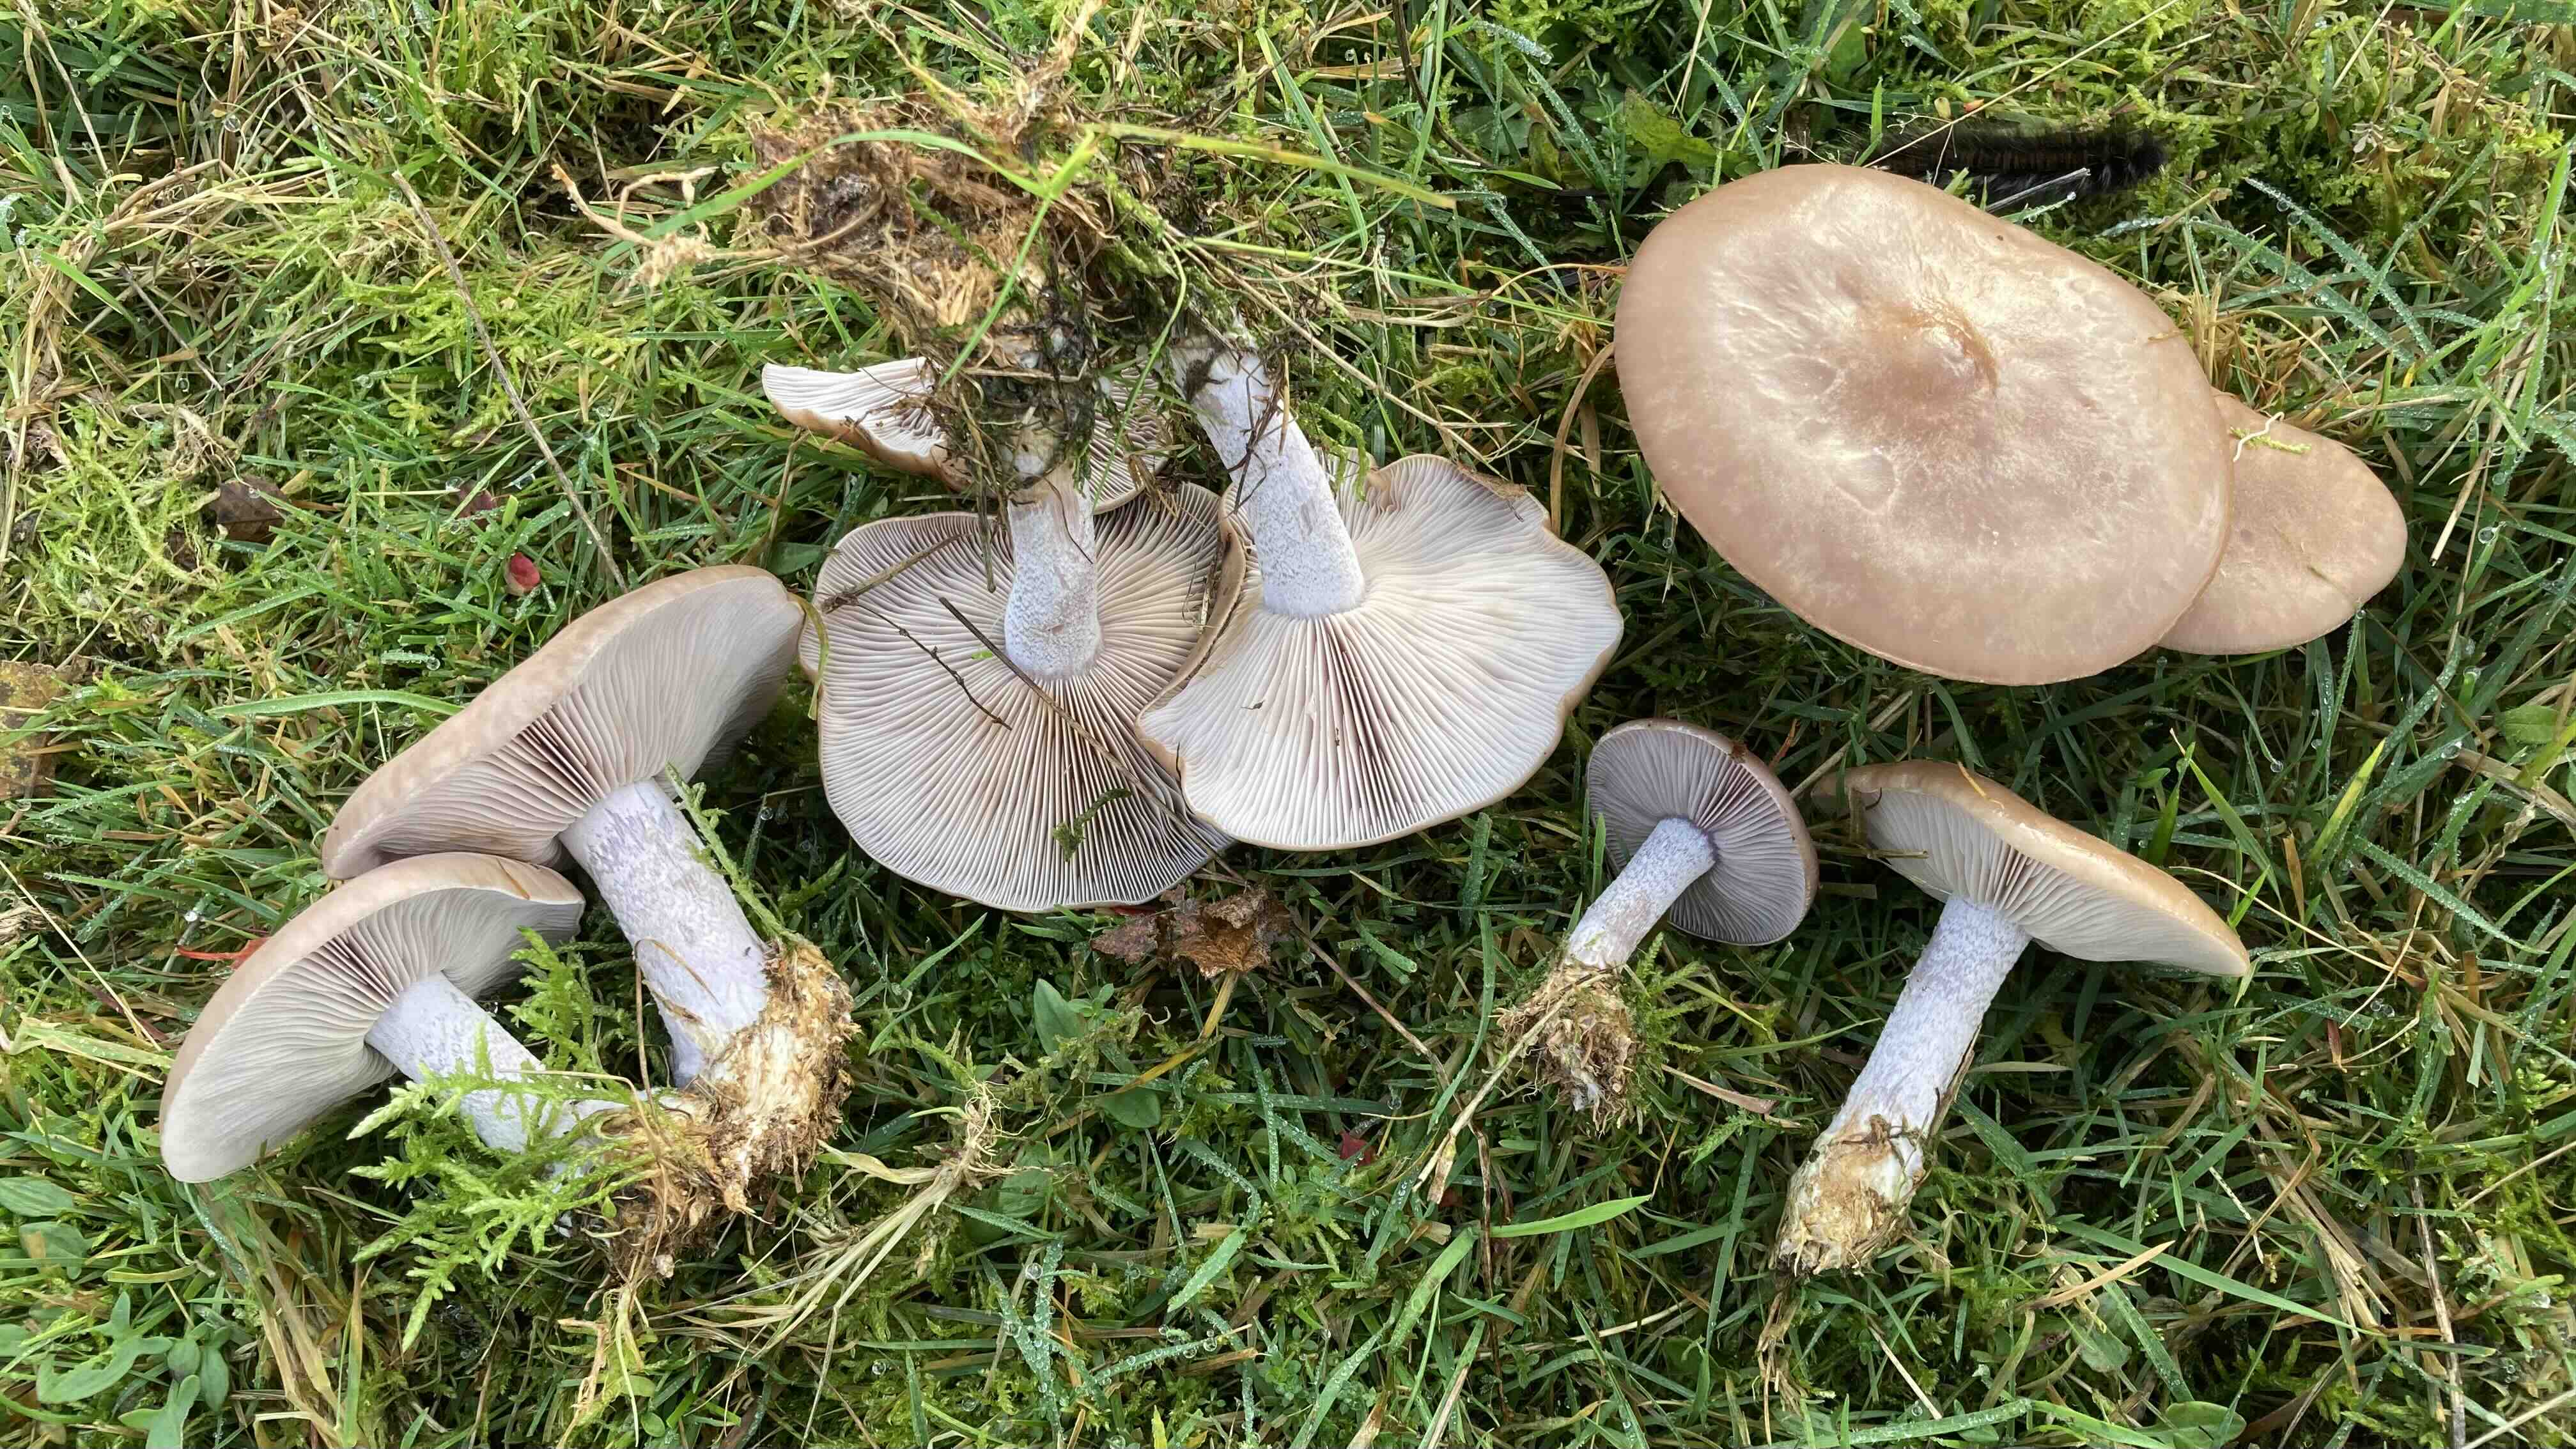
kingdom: Fungi
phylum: Basidiomycota
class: Agaricomycetes
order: Agaricales
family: Tricholomataceae
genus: Lepista
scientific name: Lepista nuda
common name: violet hekseringshat
